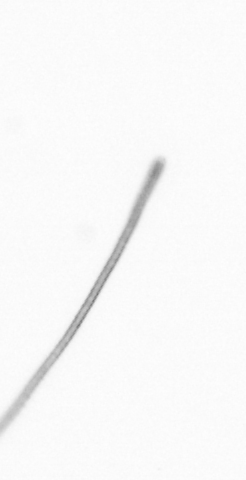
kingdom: Chromista
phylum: Ochrophyta
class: Bacillariophyceae
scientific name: Bacillariophyceae
